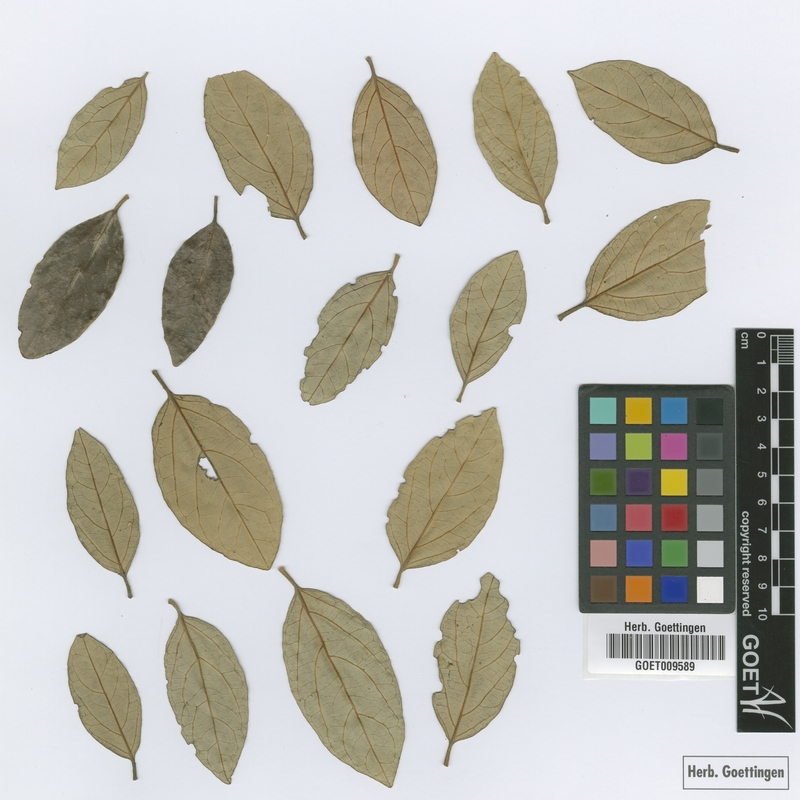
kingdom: Plantae
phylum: Tracheophyta
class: Magnoliopsida
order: Ericales
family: Styracaceae
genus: Styrax
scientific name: Styrax glaber
